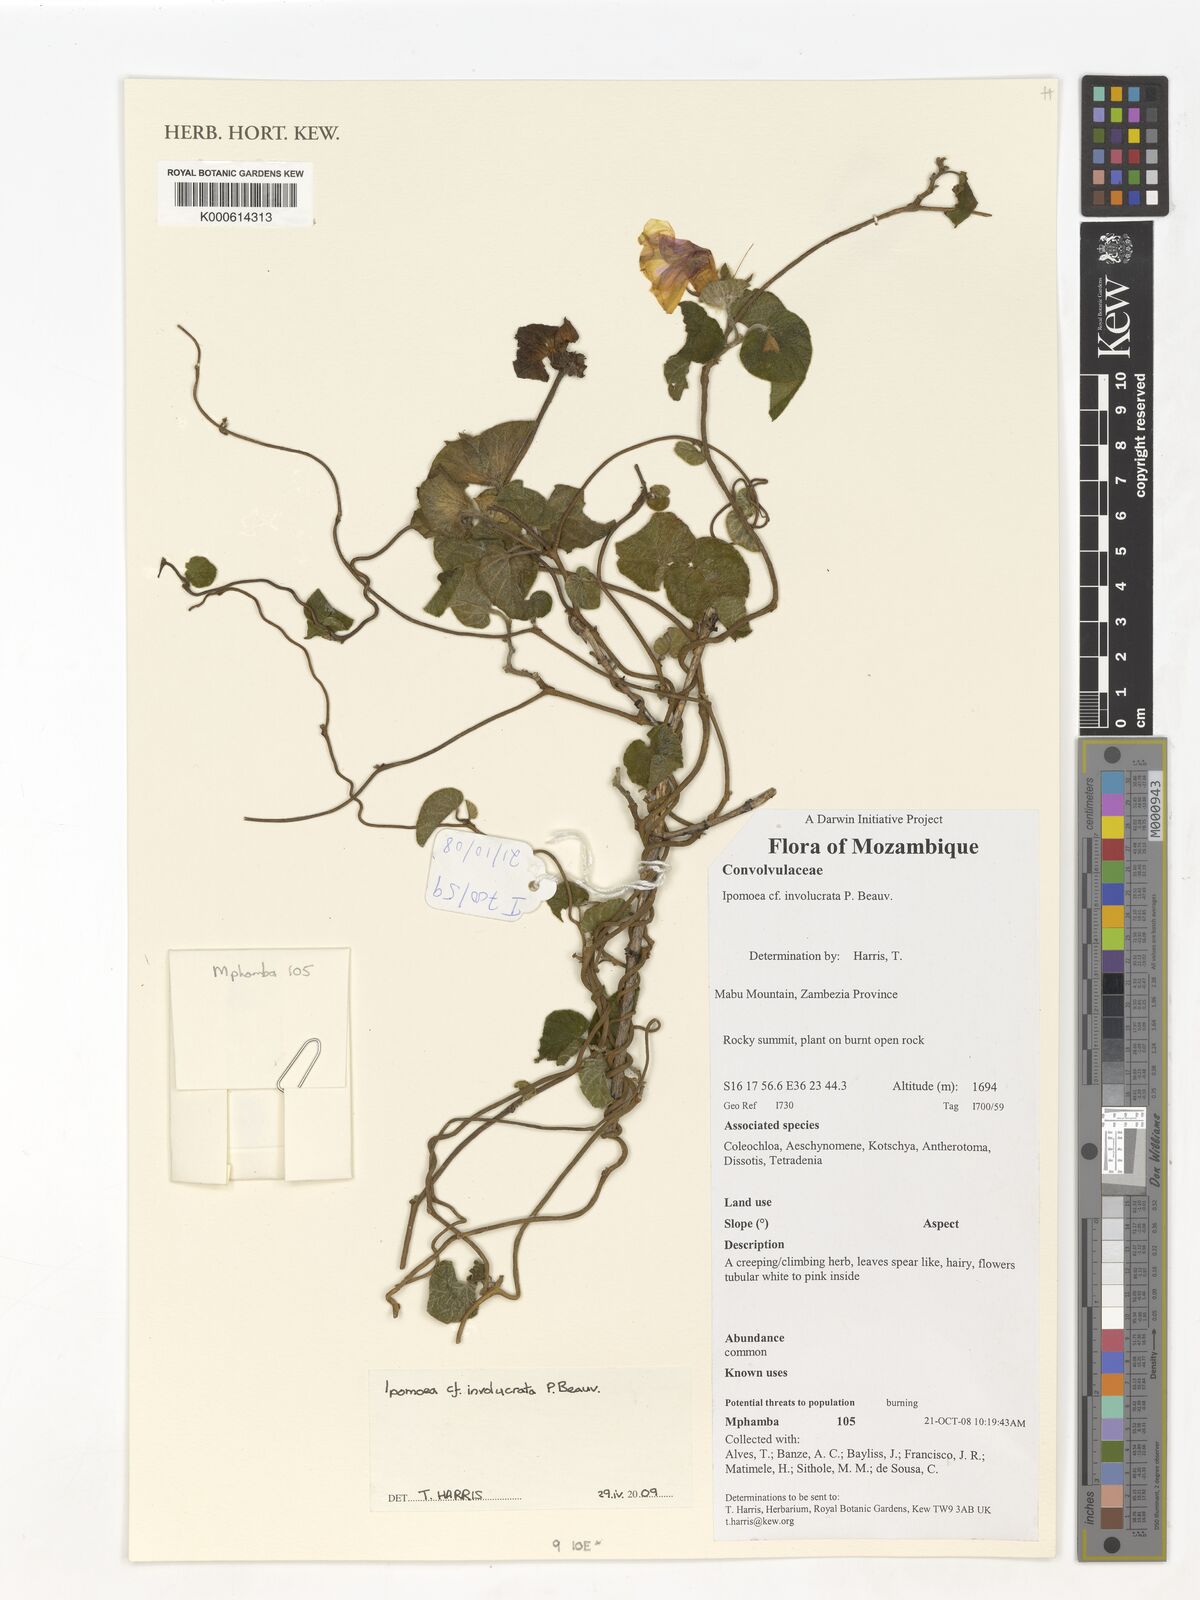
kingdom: Plantae
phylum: Tracheophyta
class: Magnoliopsida
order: Solanales
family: Convolvulaceae
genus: Ipomoea
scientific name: Ipomoea involucrata
